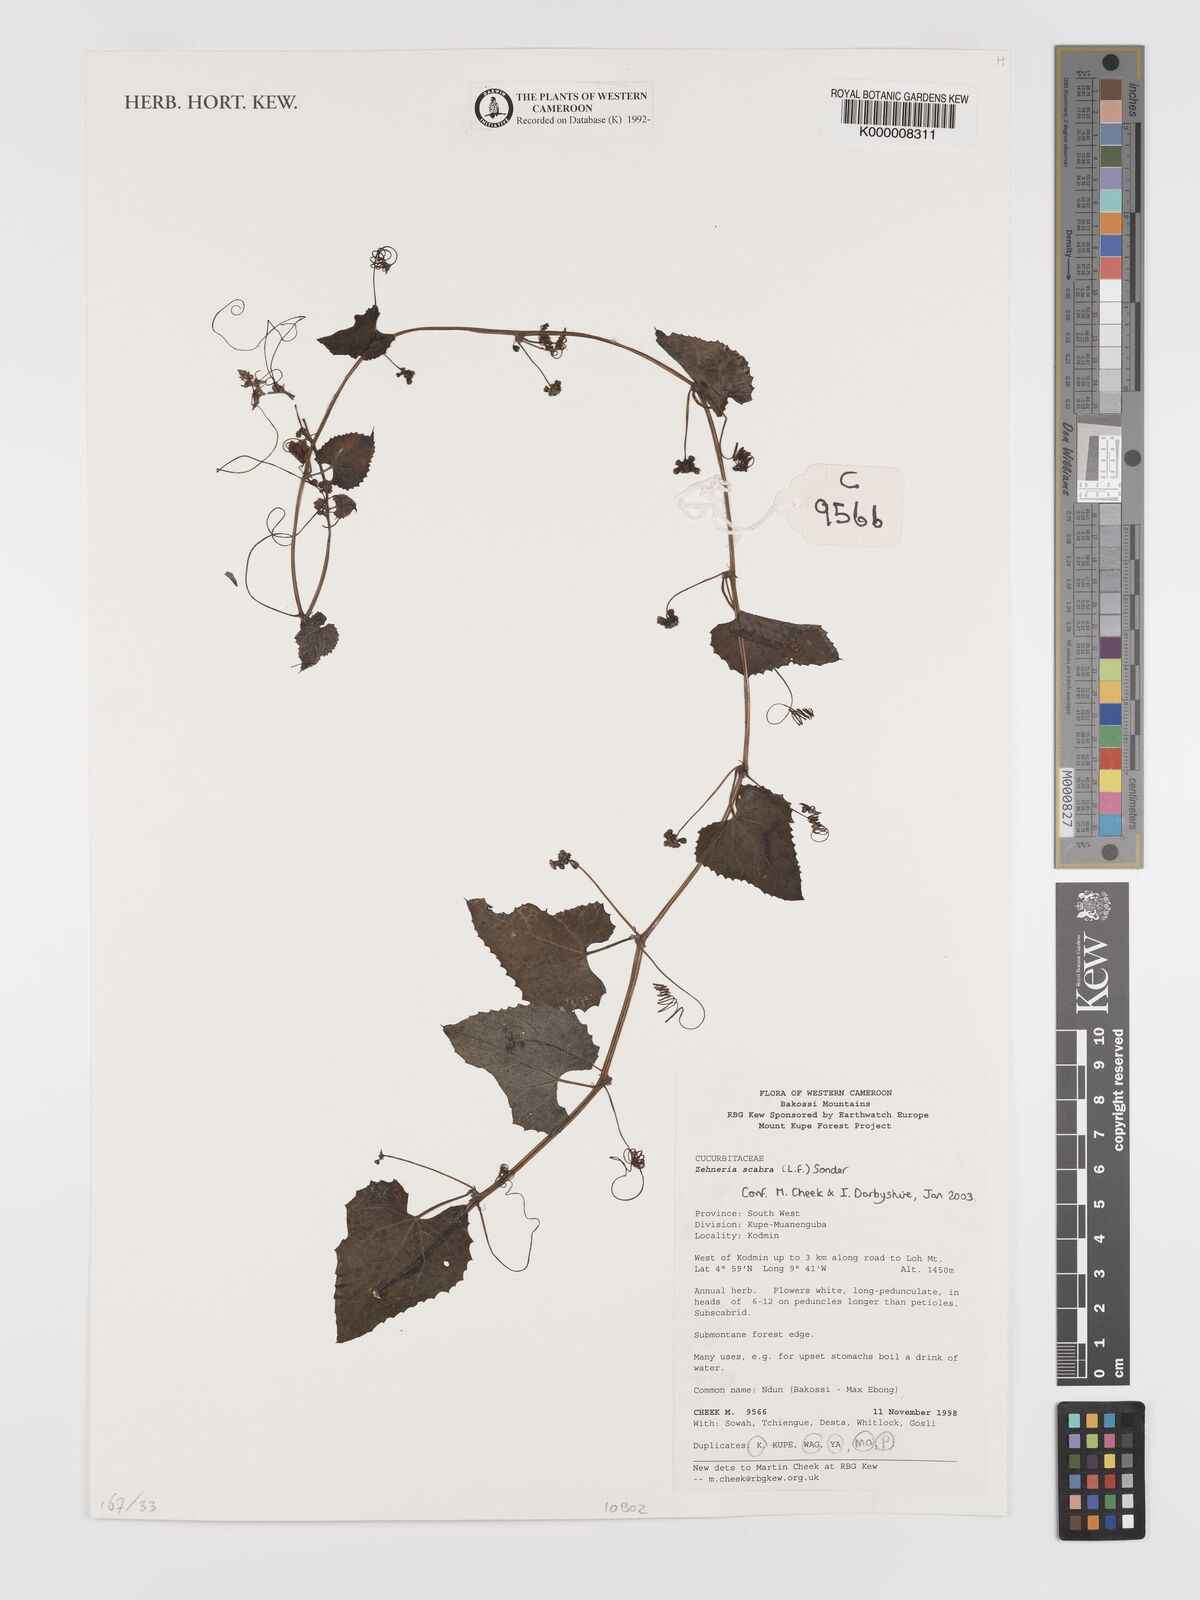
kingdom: Plantae
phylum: Tracheophyta
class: Magnoliopsida
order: Cucurbitales
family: Cucurbitaceae
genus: Zehneria
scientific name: Zehneria scabra
